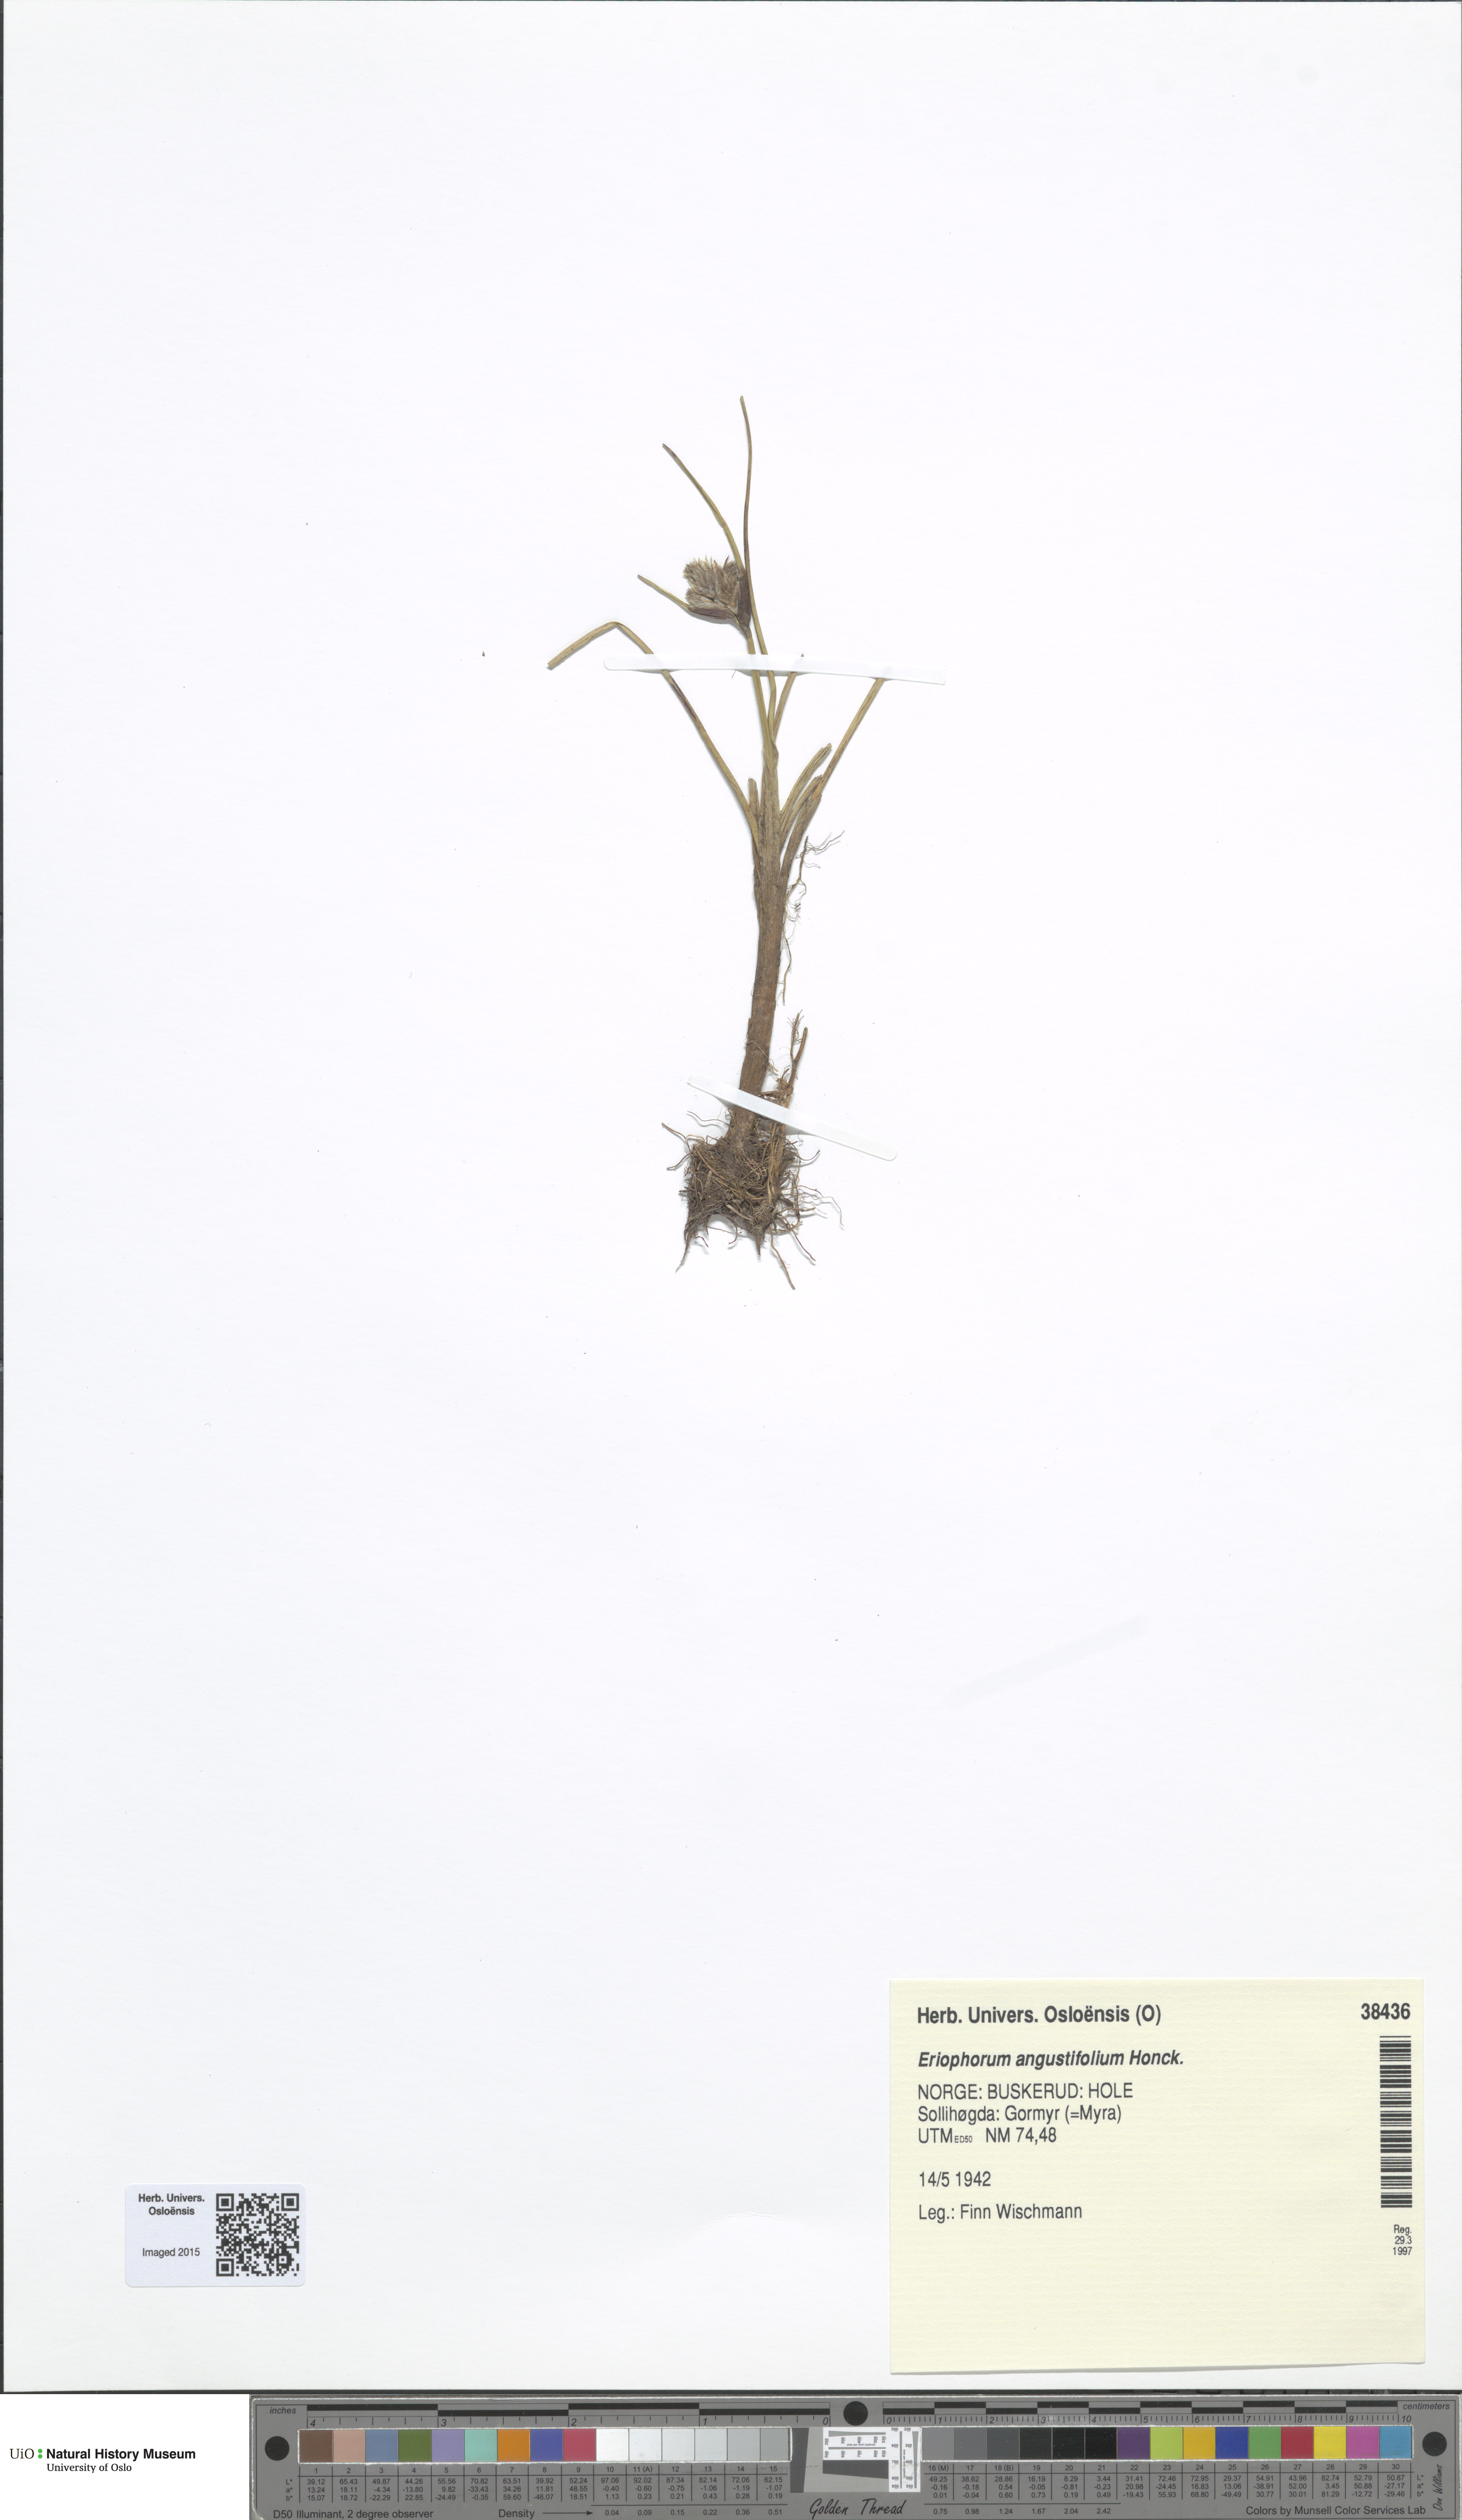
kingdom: Plantae
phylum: Tracheophyta
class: Liliopsida
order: Poales
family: Cyperaceae
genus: Eriophorum
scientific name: Eriophorum angustifolium
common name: Common cottongrass
